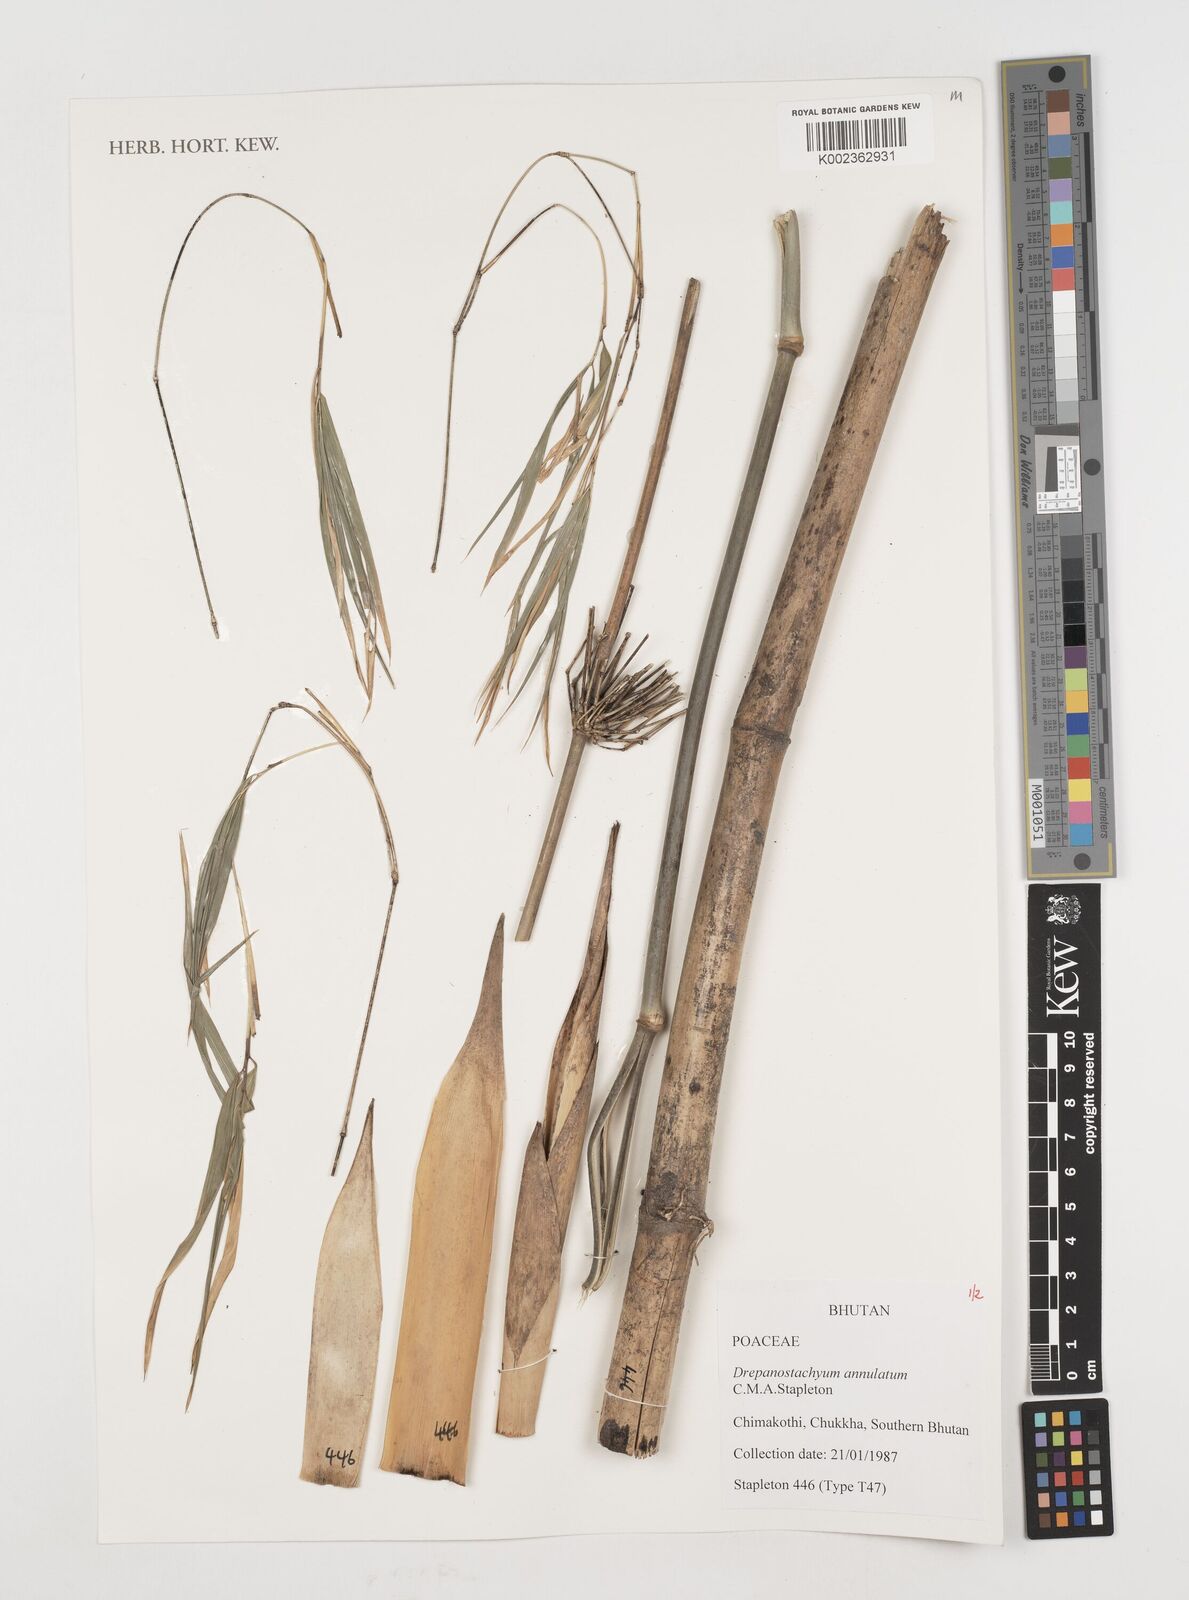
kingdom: Plantae
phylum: Tracheophyta
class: Liliopsida
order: Poales
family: Poaceae
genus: Drepanostachyum
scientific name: Drepanostachyum annulatum
